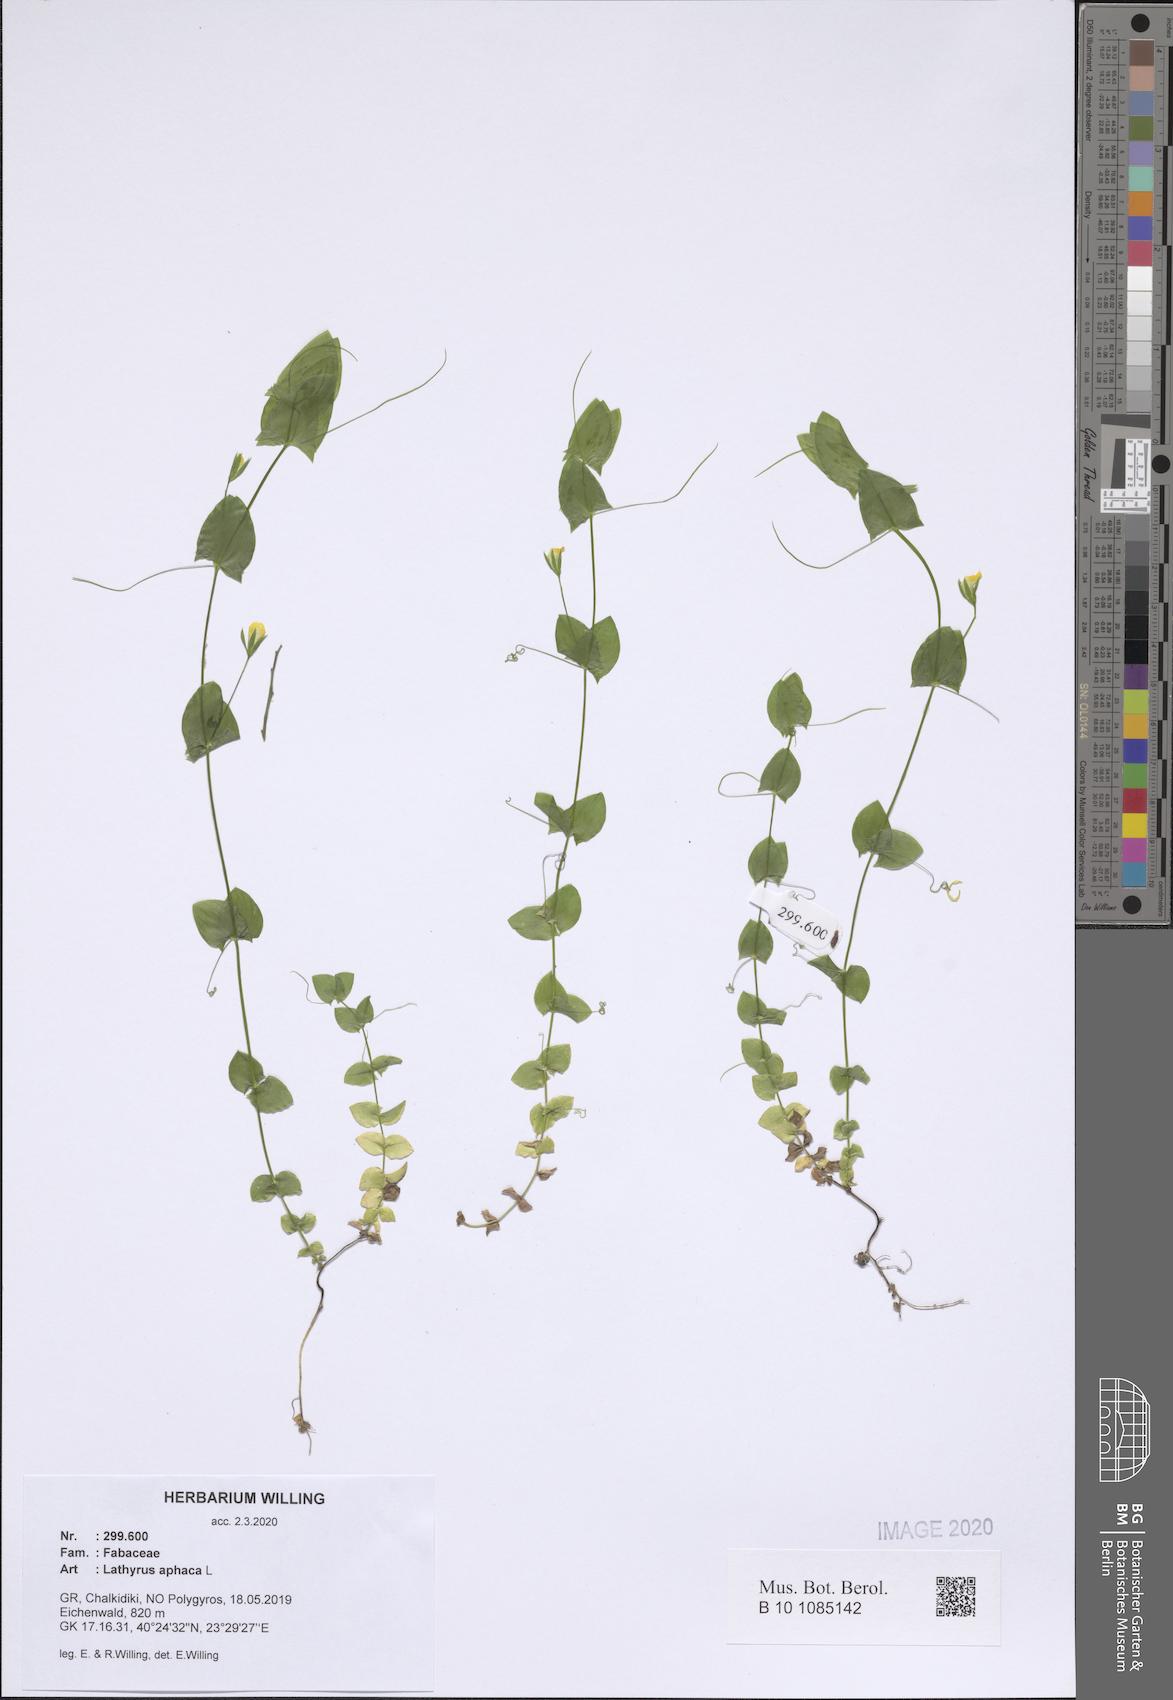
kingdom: Plantae
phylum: Tracheophyta
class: Magnoliopsida
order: Fabales
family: Fabaceae
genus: Lathyrus
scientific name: Lathyrus aphaca
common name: Yellow vetchling
